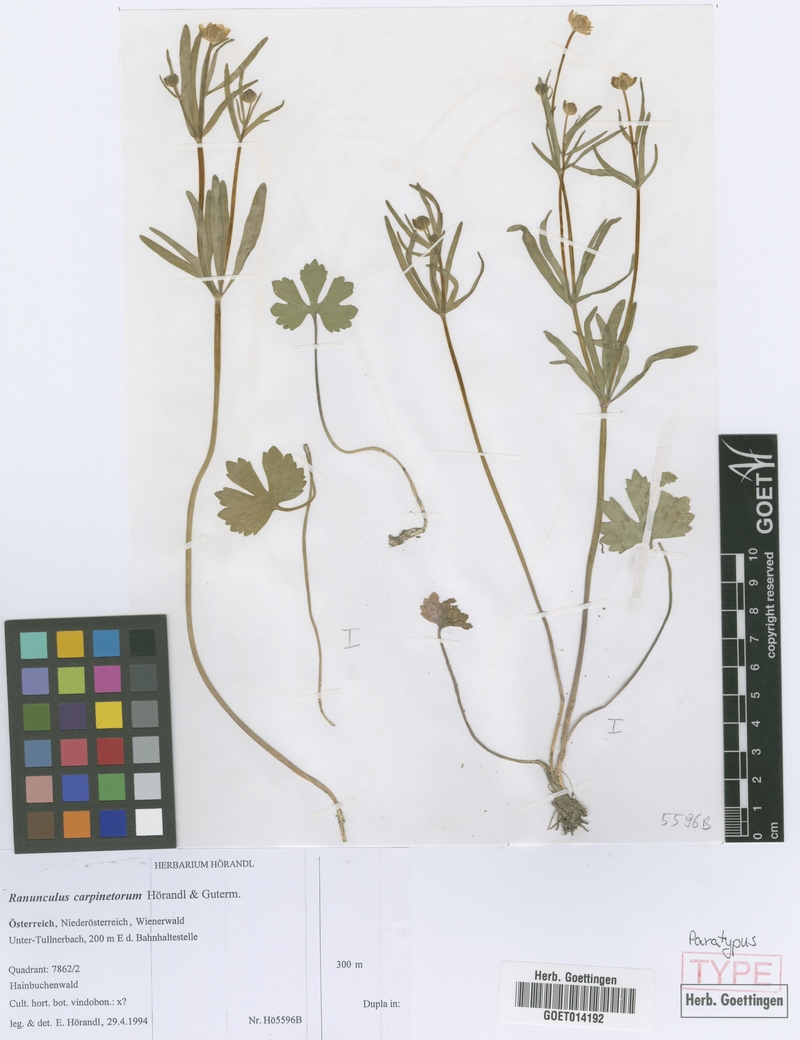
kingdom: Plantae
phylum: Tracheophyta
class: Magnoliopsida
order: Ranunculales
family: Ranunculaceae
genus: Ranunculus
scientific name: Ranunculus carpinetorum
